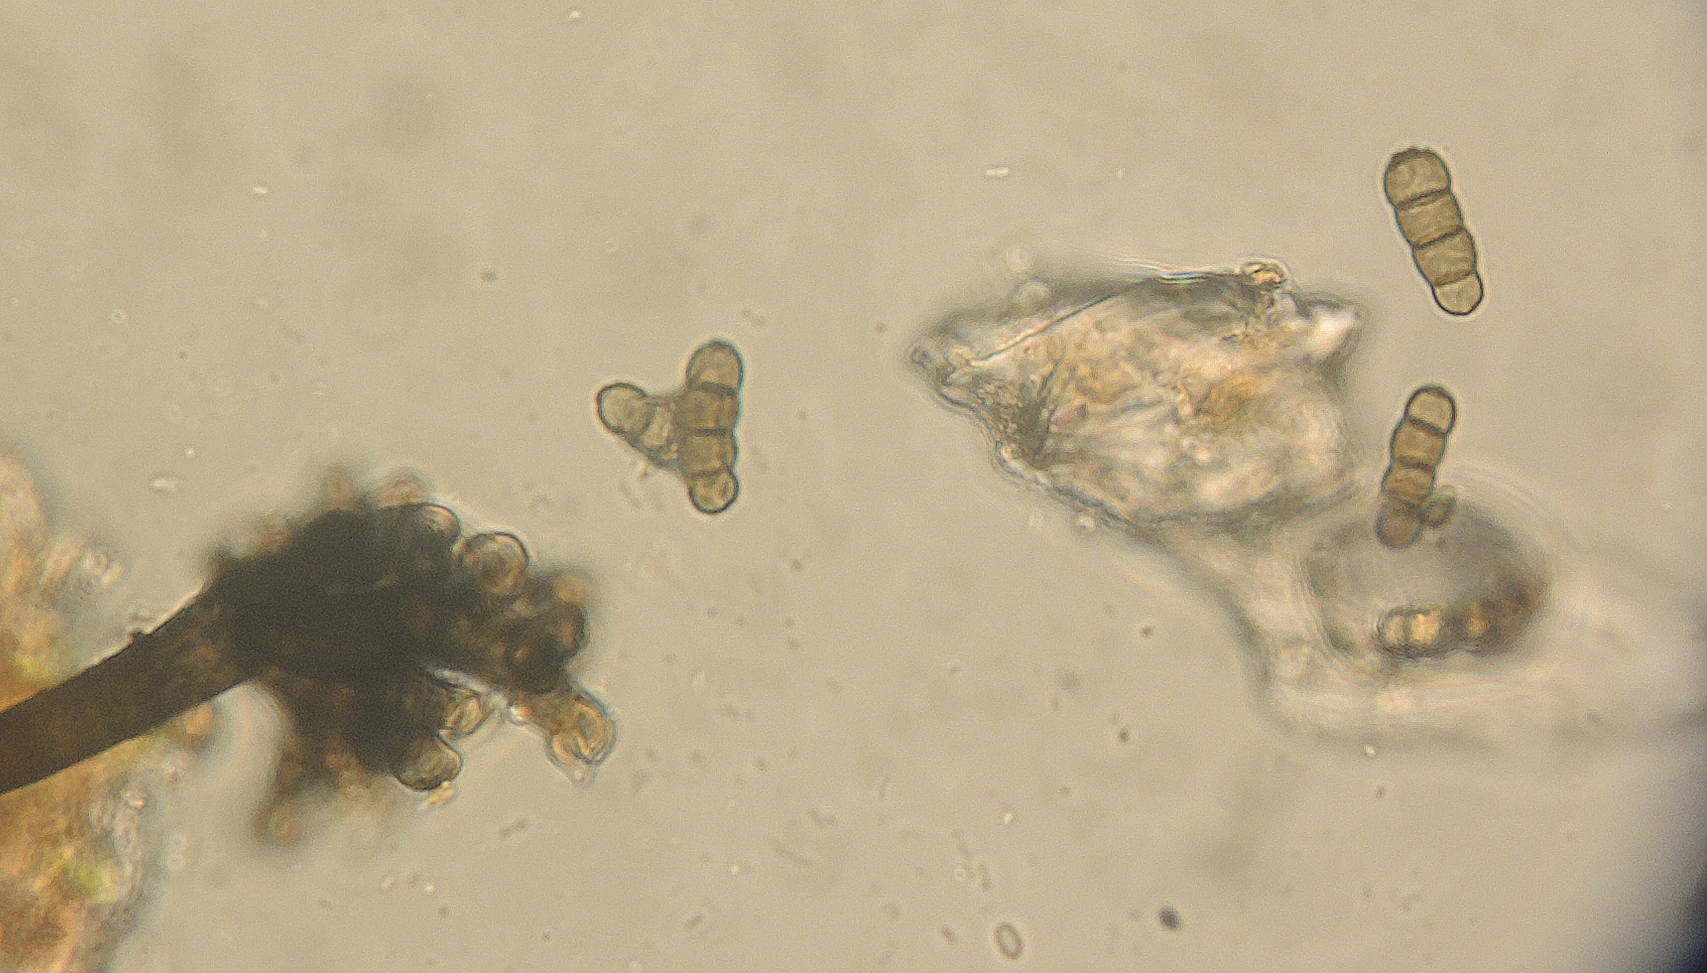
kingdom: Fungi
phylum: Ascomycota
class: Dothideomycetes
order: Pleosporales
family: Torulaceae
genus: Dendryphion
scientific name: Dendryphion comosum
